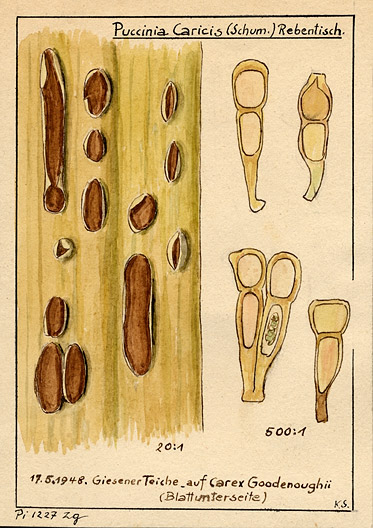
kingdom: Plantae
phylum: Tracheophyta
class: Liliopsida
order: Poales
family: Cyperaceae
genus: Carex
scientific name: Carex nigra
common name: Common sedge
